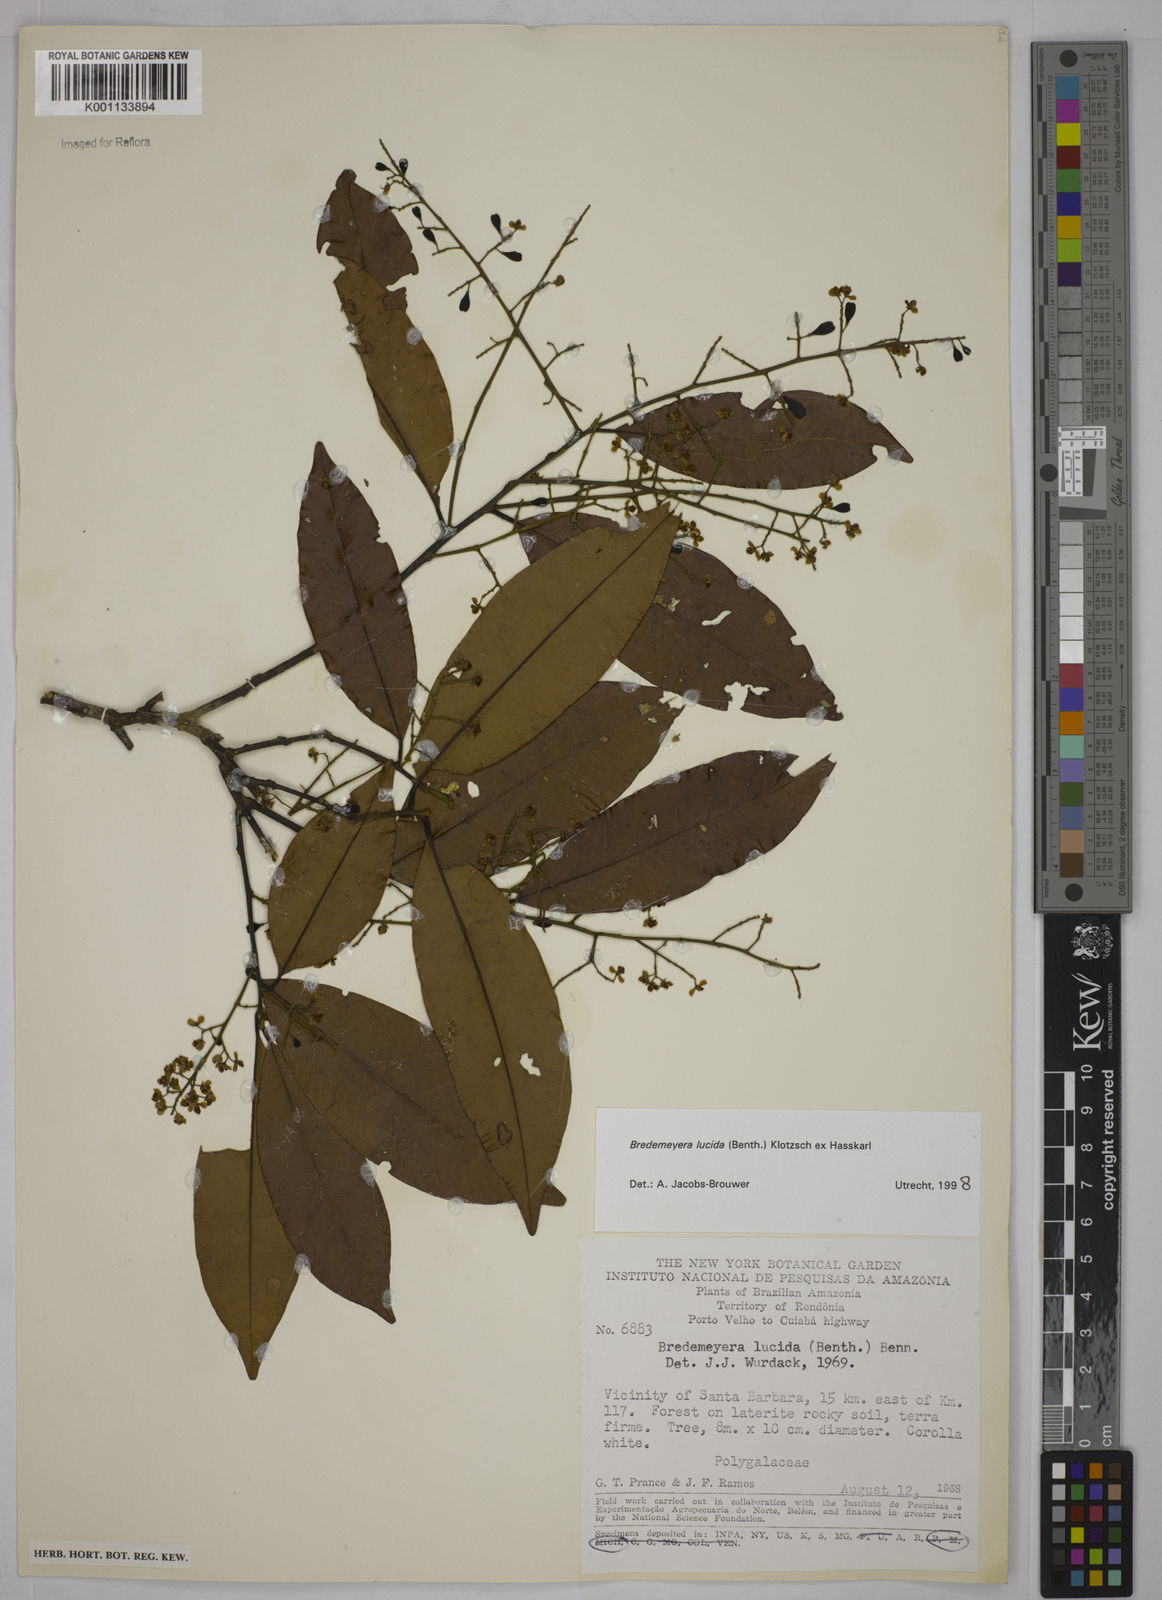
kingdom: Plantae
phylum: Tracheophyta
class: Magnoliopsida
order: Fabales
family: Polygalaceae
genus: Bredemeyera
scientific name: Bredemeyera lucida
